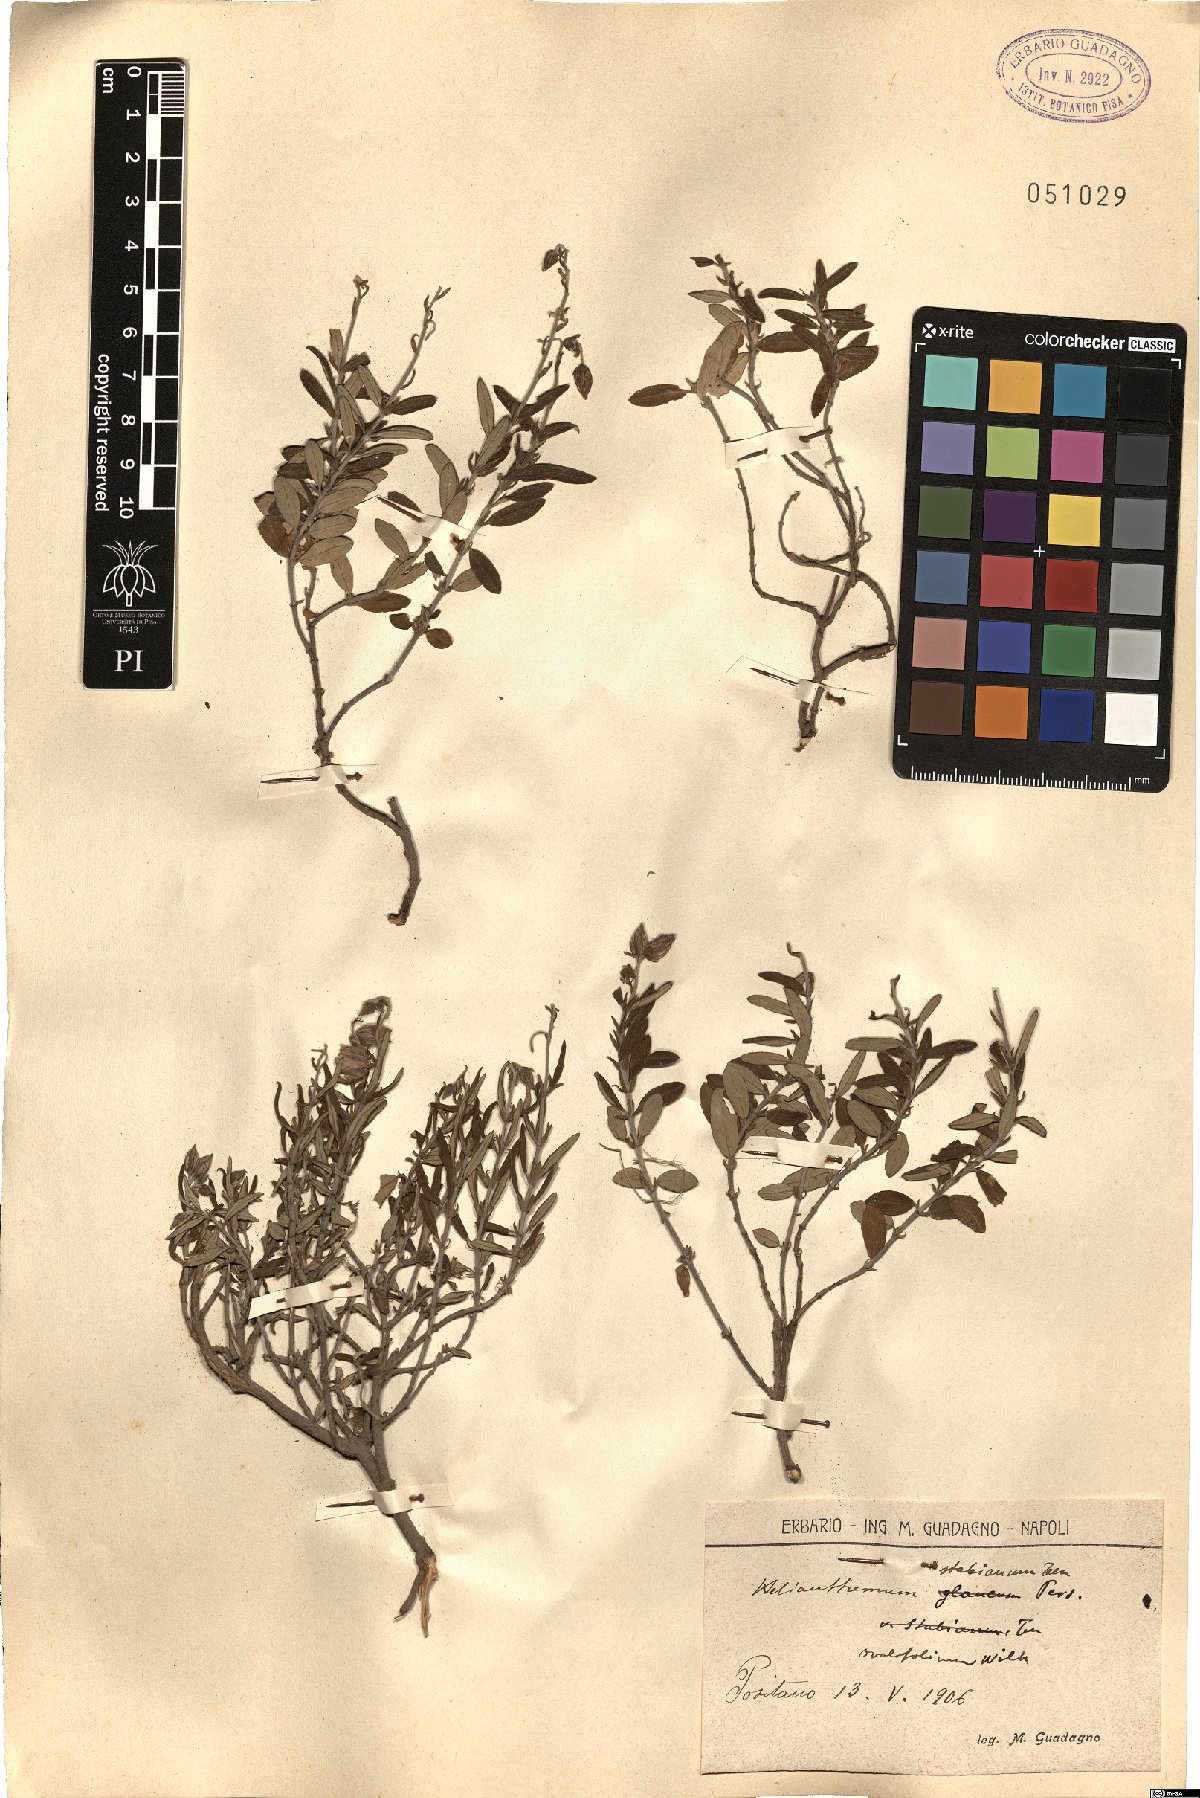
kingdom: Plantae
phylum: Tracheophyta
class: Magnoliopsida
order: Malvales
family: Cistaceae
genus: Helianthemum
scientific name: Helianthemum croceum
